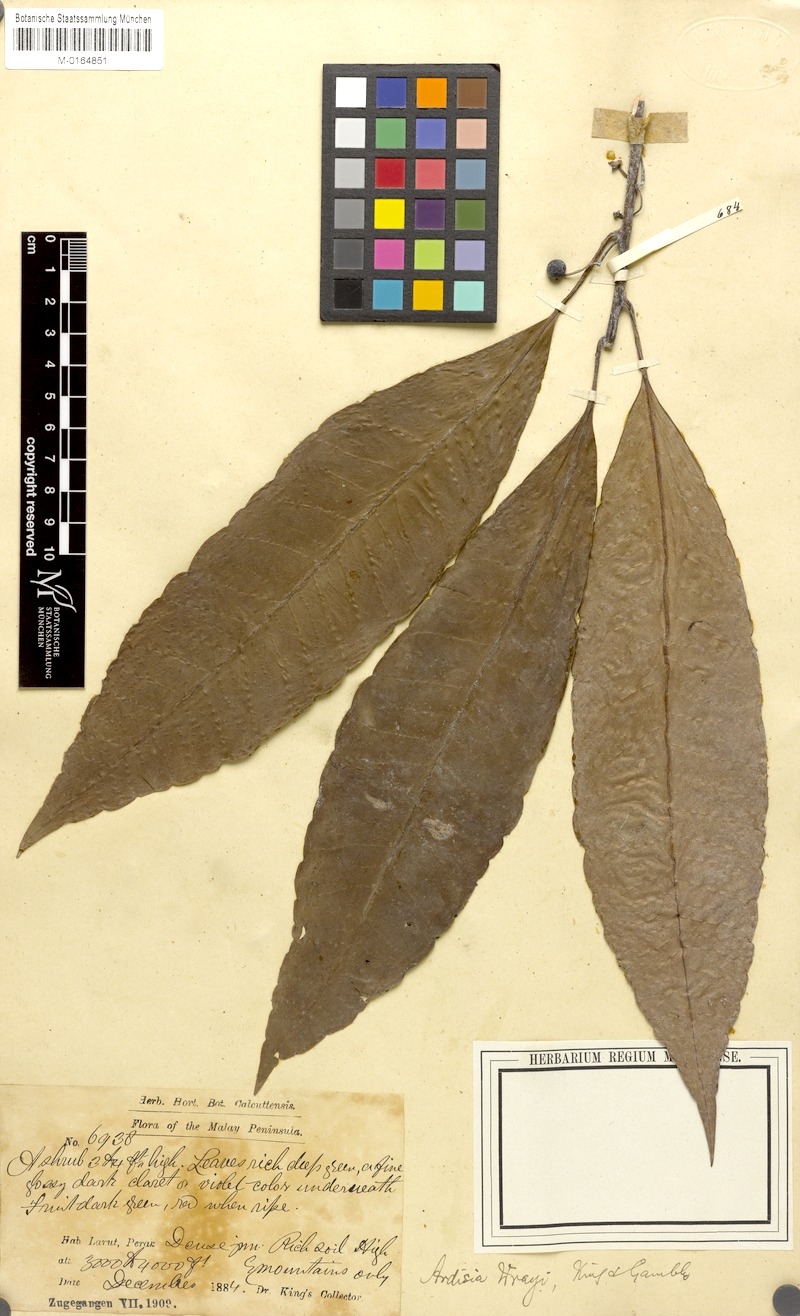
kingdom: Plantae
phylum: Tracheophyta
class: Magnoliopsida
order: Ericales
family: Primulaceae
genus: Ardisia
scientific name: Ardisia sphenobasis
